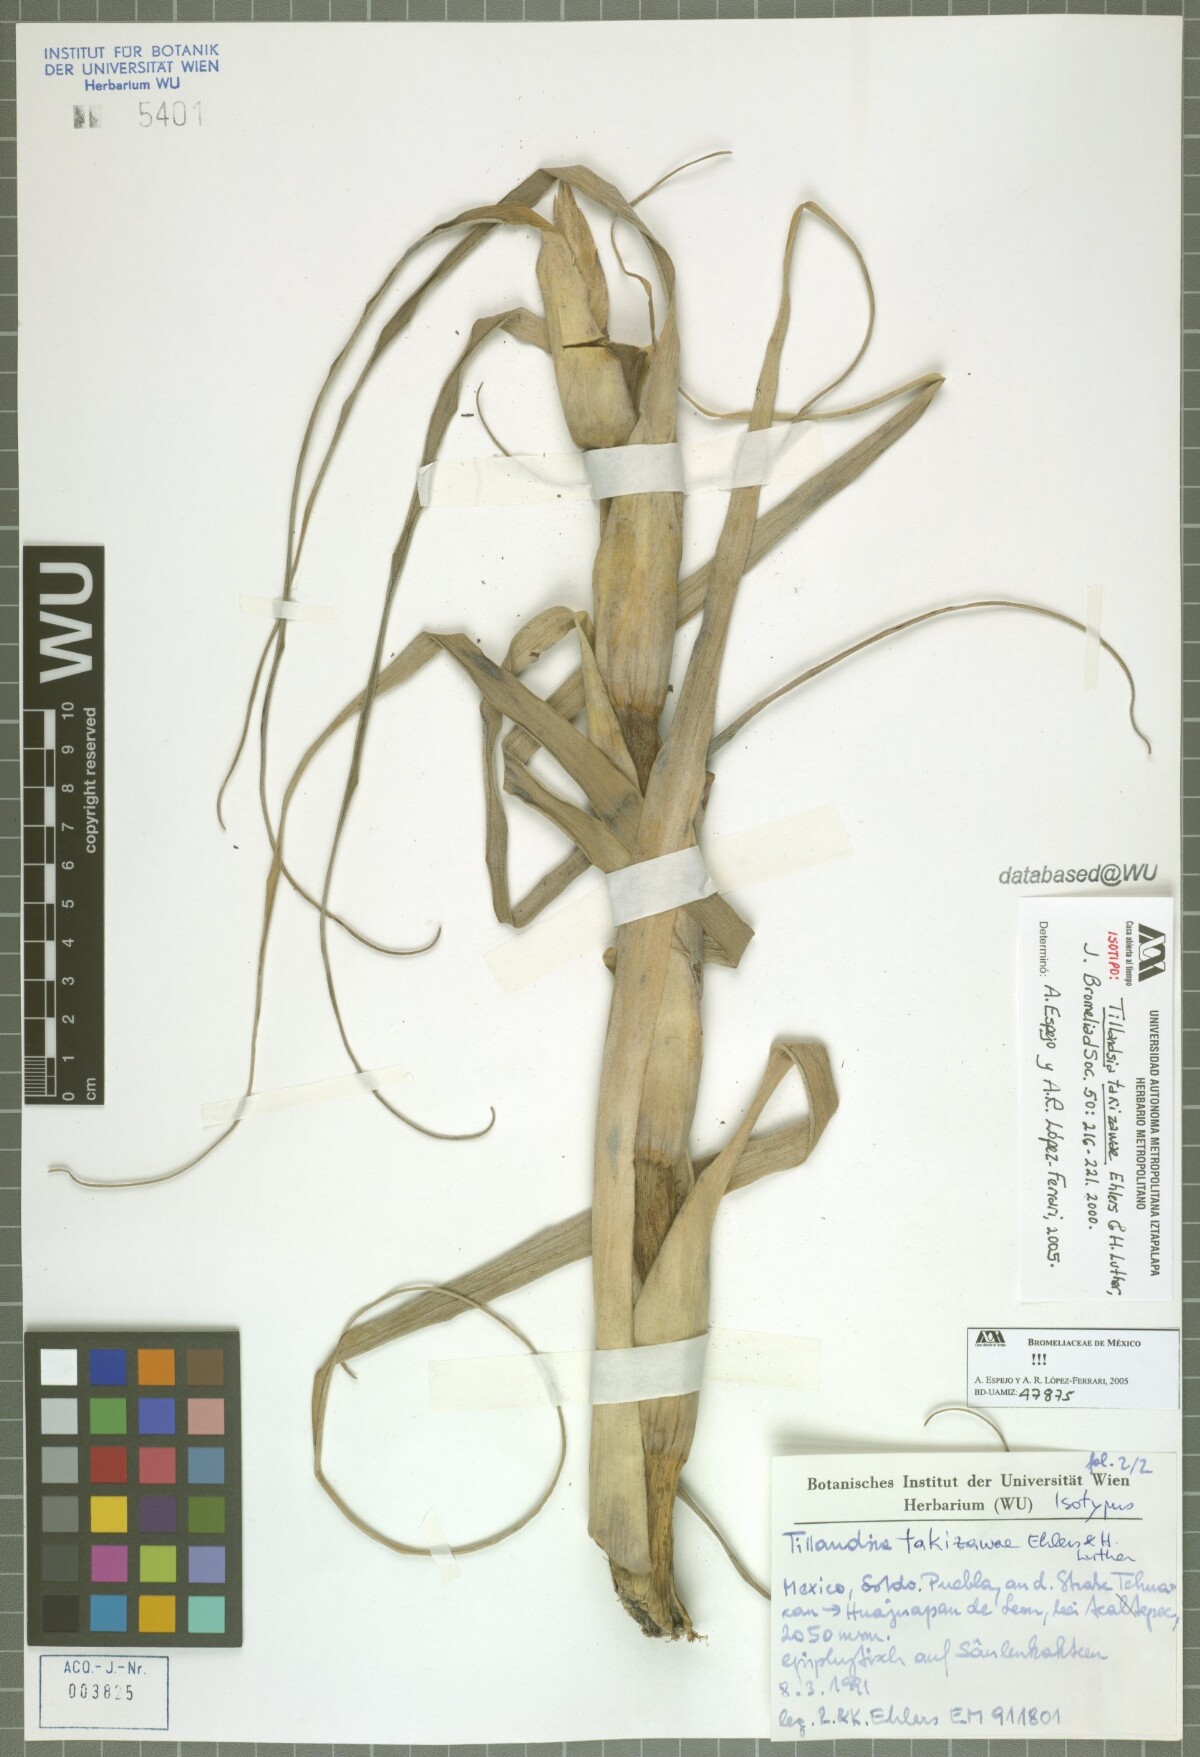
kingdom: Plantae
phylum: Tracheophyta
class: Liliopsida
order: Poales
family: Bromeliaceae
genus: Tillandsia
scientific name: Tillandsia takizawae
